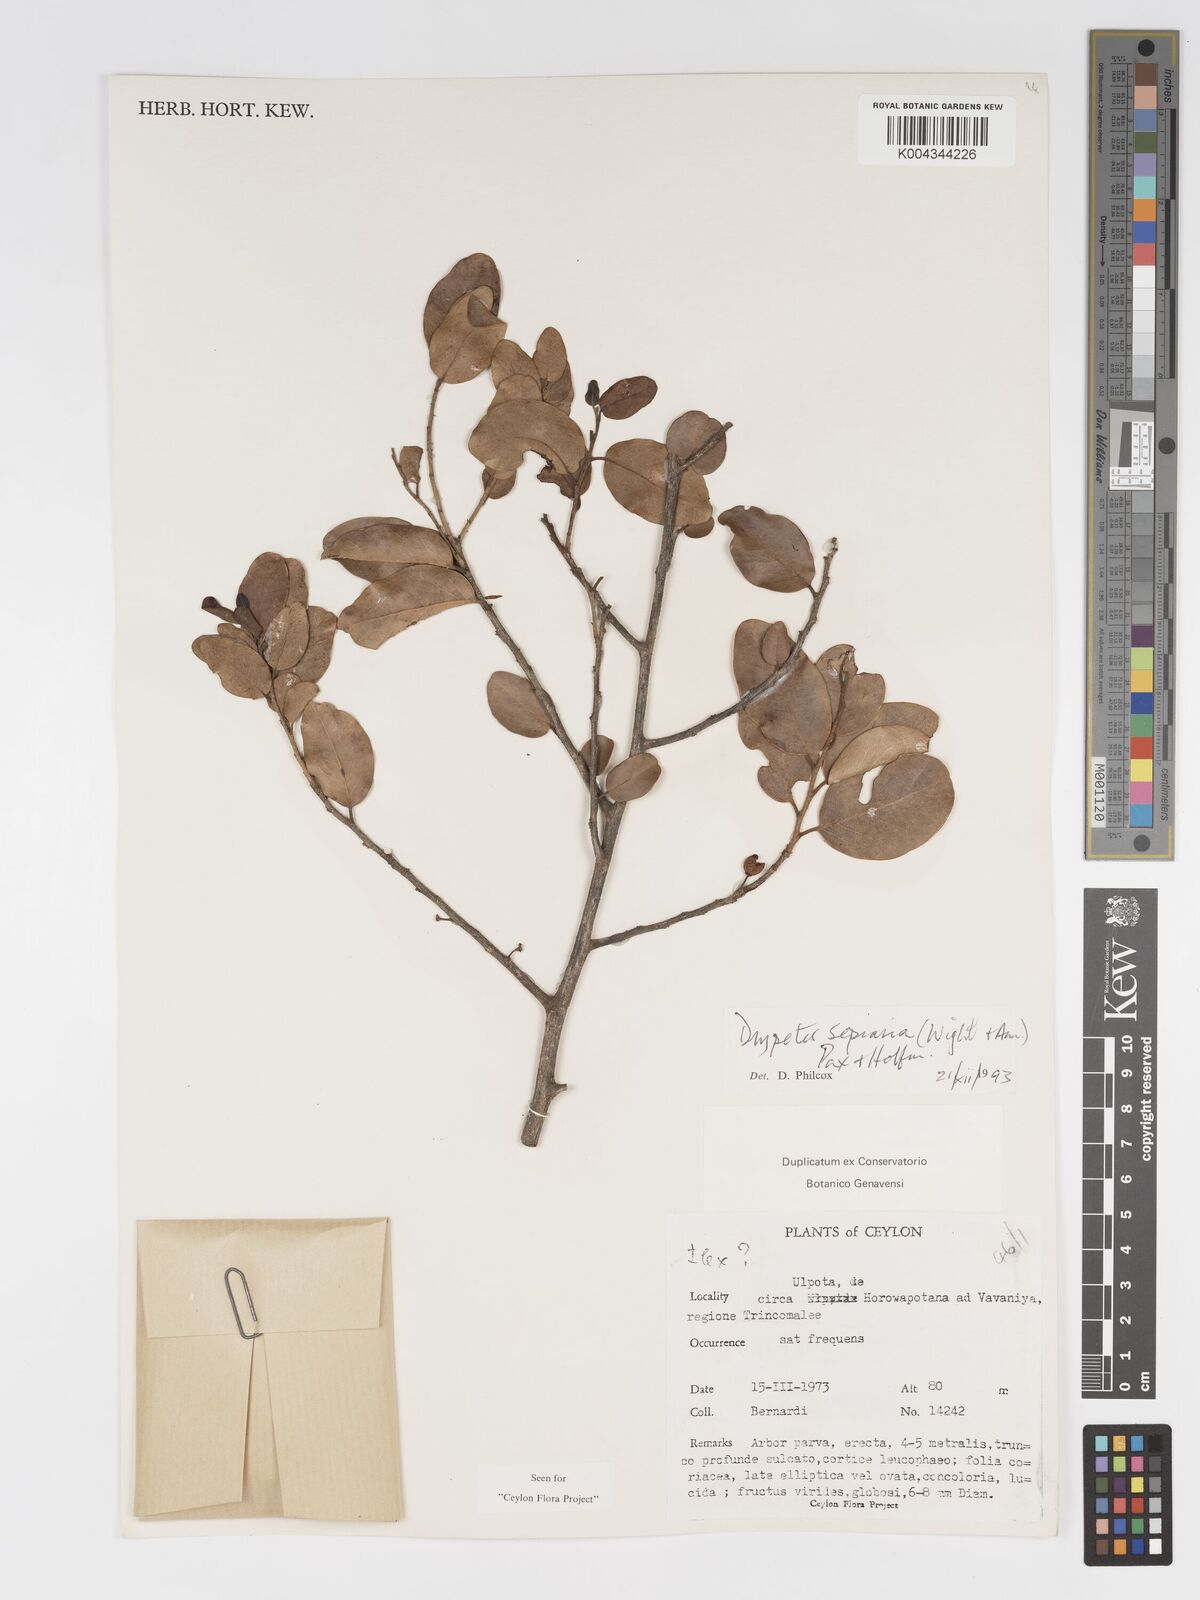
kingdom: Plantae
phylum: Tracheophyta
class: Magnoliopsida
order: Malpighiales
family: Putranjivaceae
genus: Drypetes
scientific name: Drypetes sepiaria
